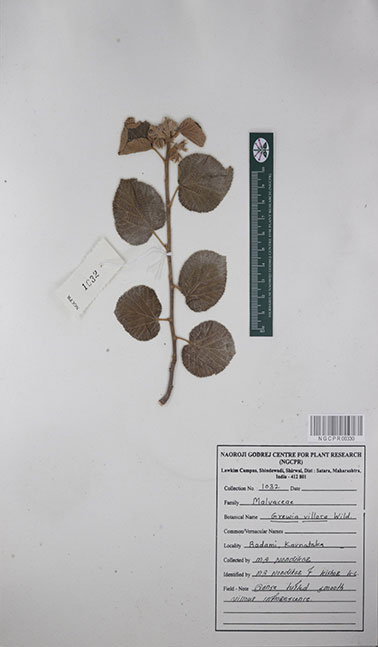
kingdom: Plantae
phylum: Tracheophyta
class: Magnoliopsida
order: Malvales
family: Malvaceae
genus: Grewia
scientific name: Grewia villosa
